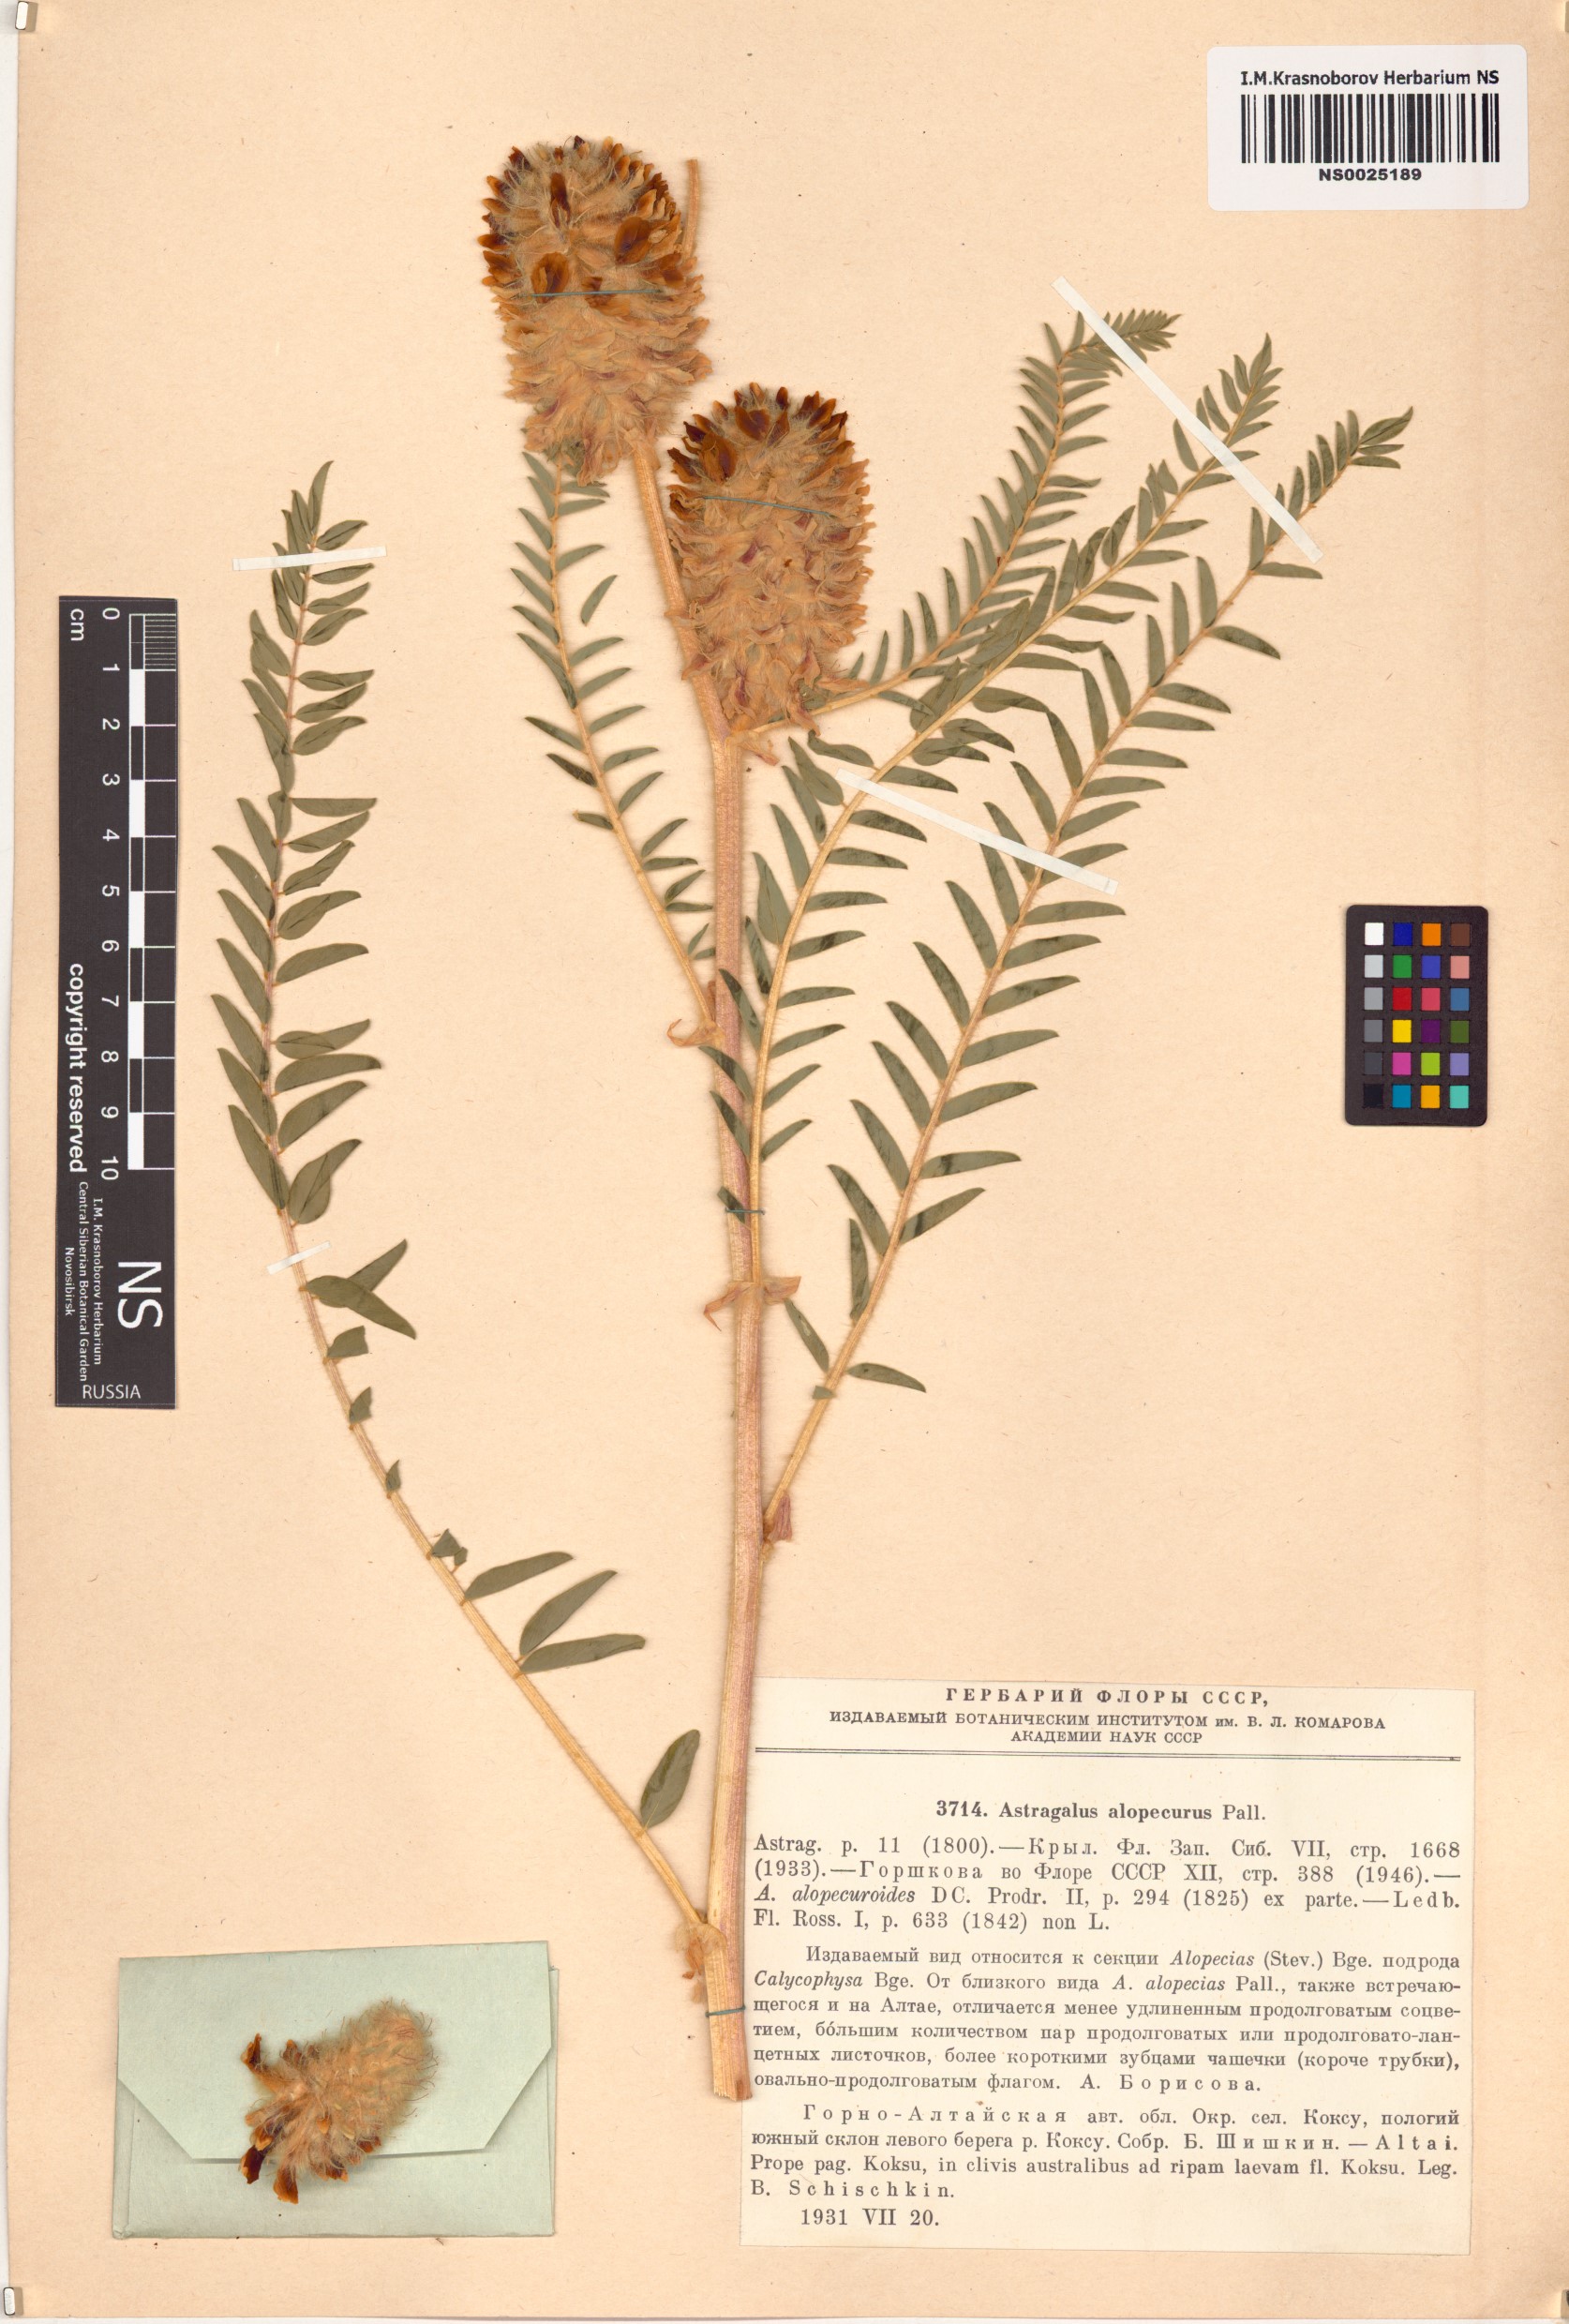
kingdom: Plantae
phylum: Tracheophyta
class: Magnoliopsida
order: Fabales
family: Fabaceae
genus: Astragalus
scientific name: Astragalus alopecurus
